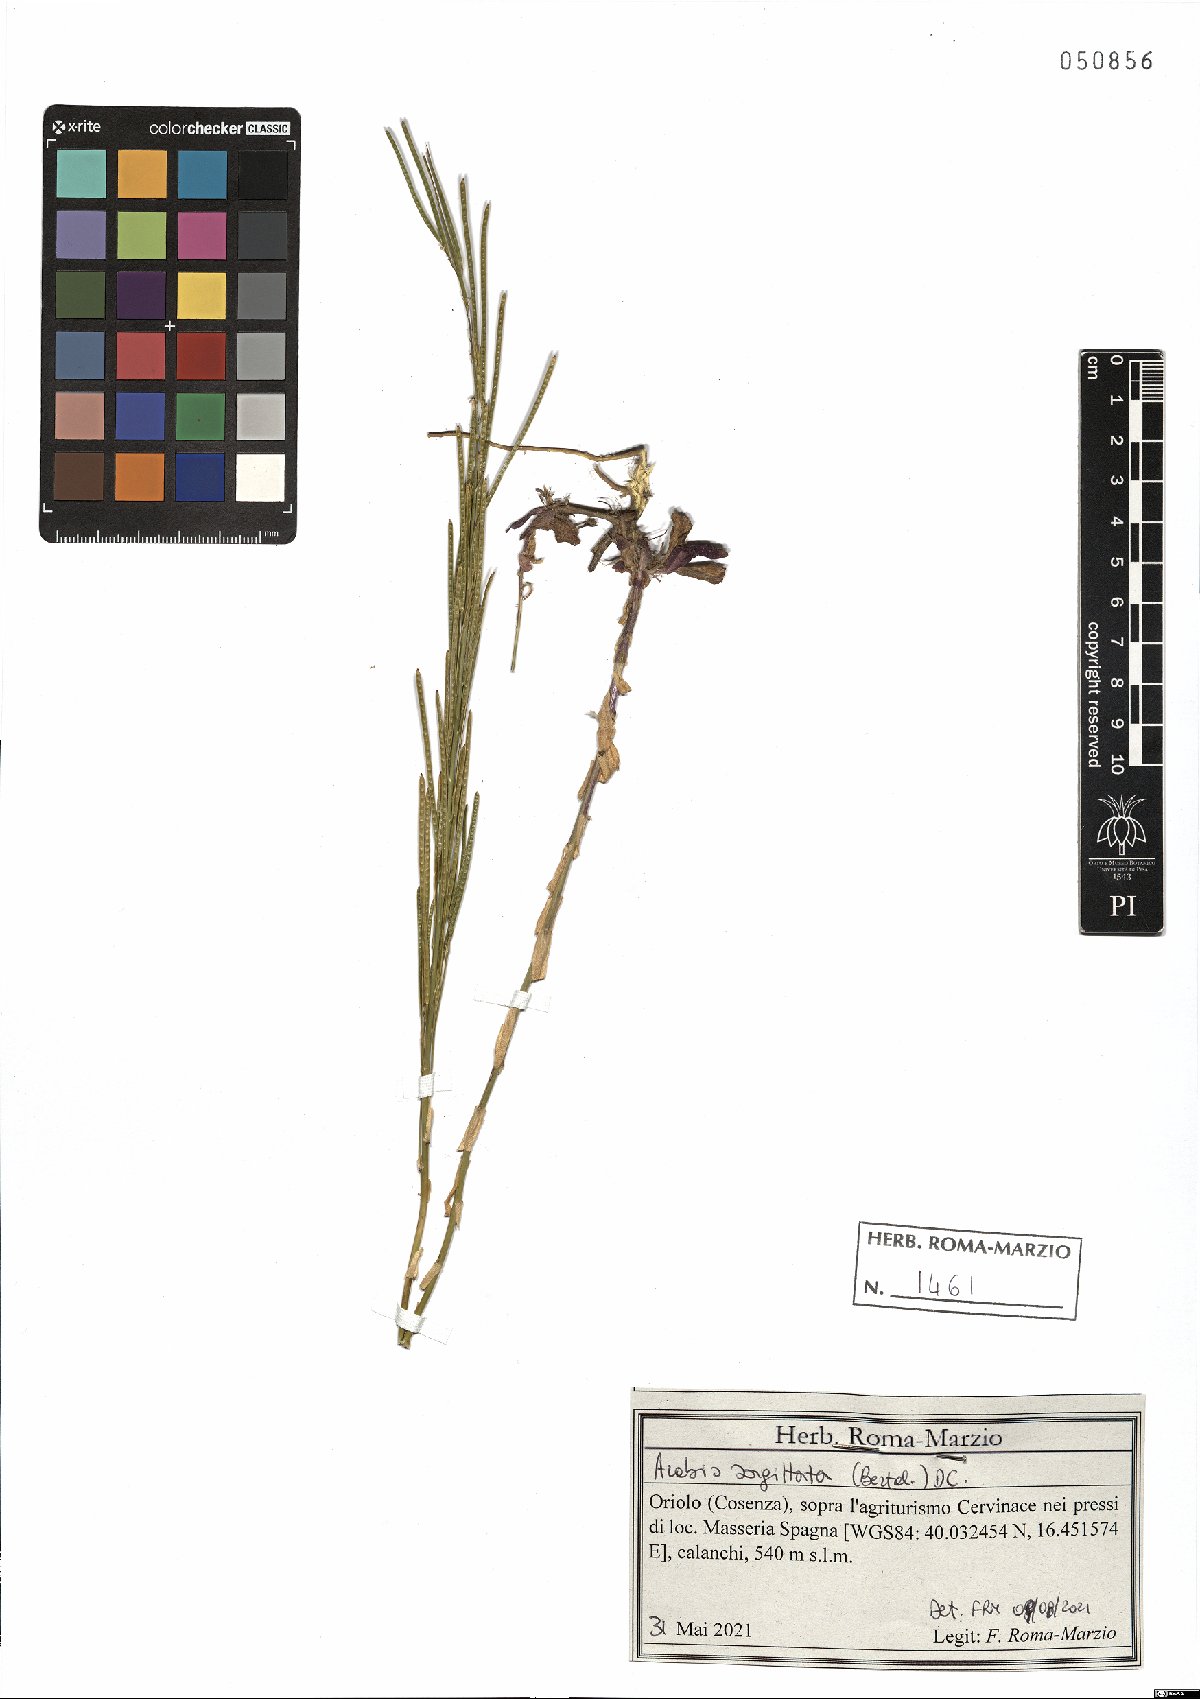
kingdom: Plantae
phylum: Tracheophyta
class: Magnoliopsida
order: Brassicales
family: Brassicaceae
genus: Arabis
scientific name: Arabis sagittata
